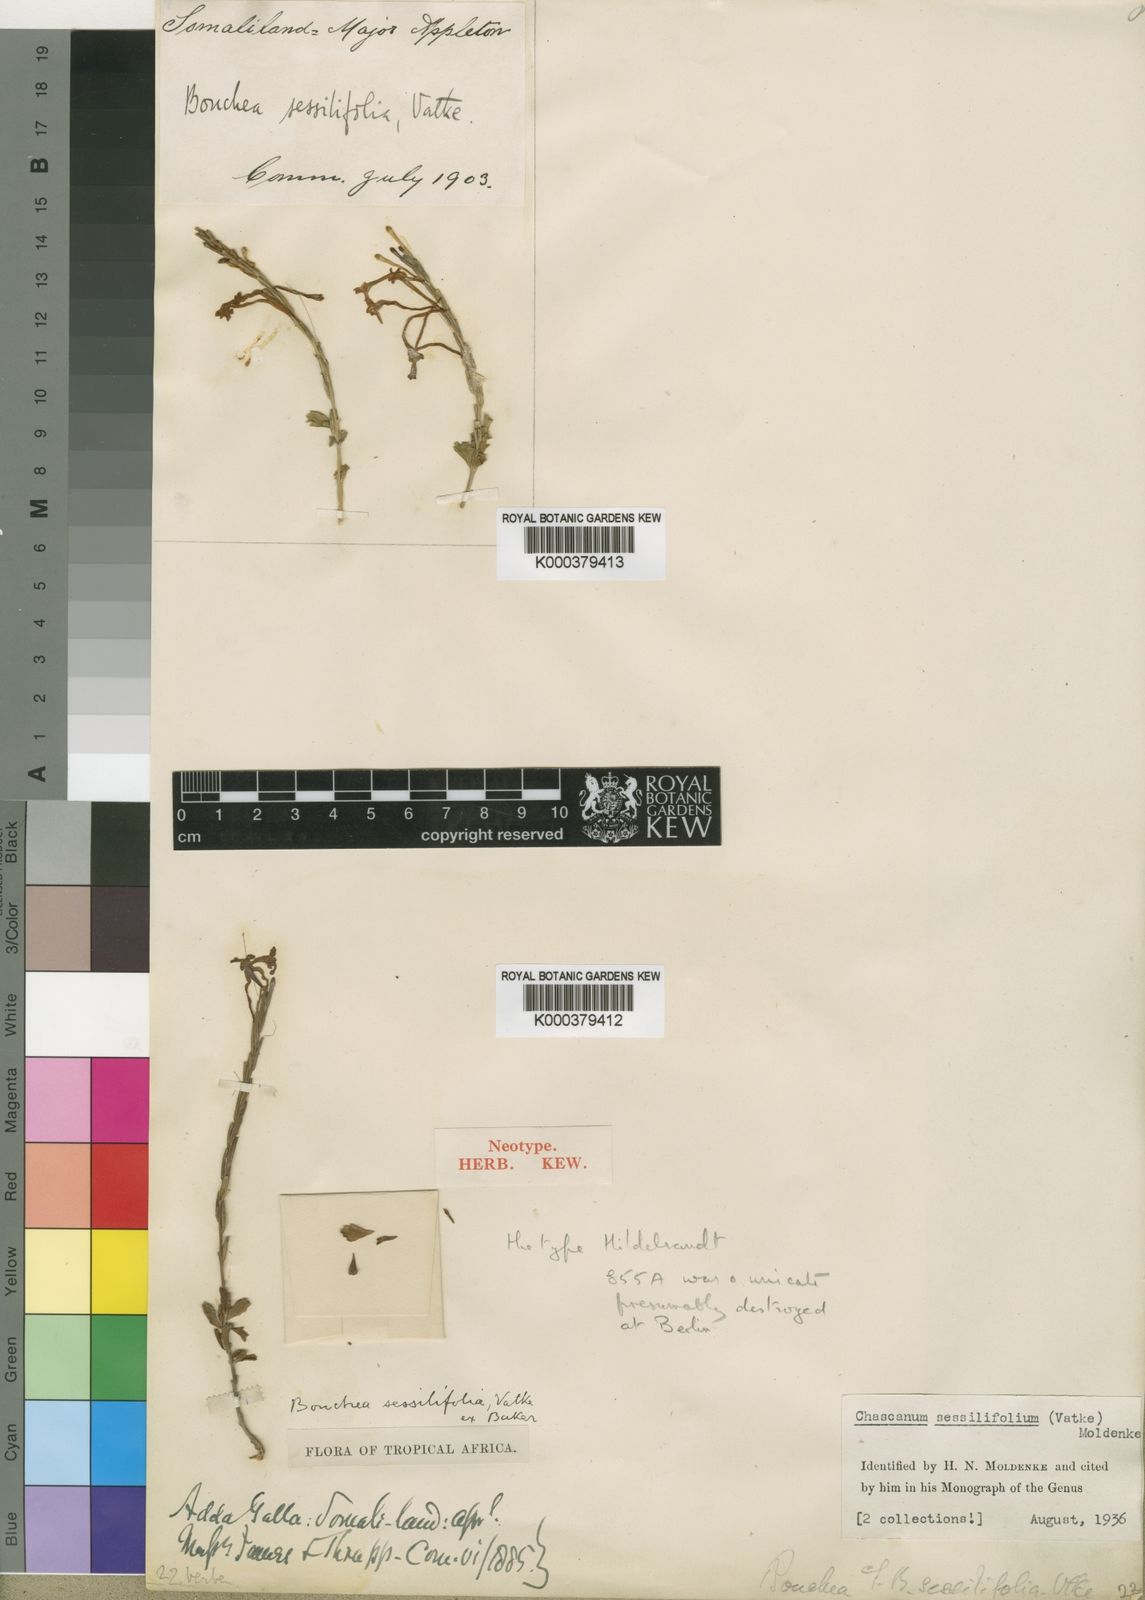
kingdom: Plantae
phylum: Tracheophyta
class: Magnoliopsida
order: Lamiales
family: Verbenaceae
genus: Chascanum
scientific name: Chascanum mixtum
